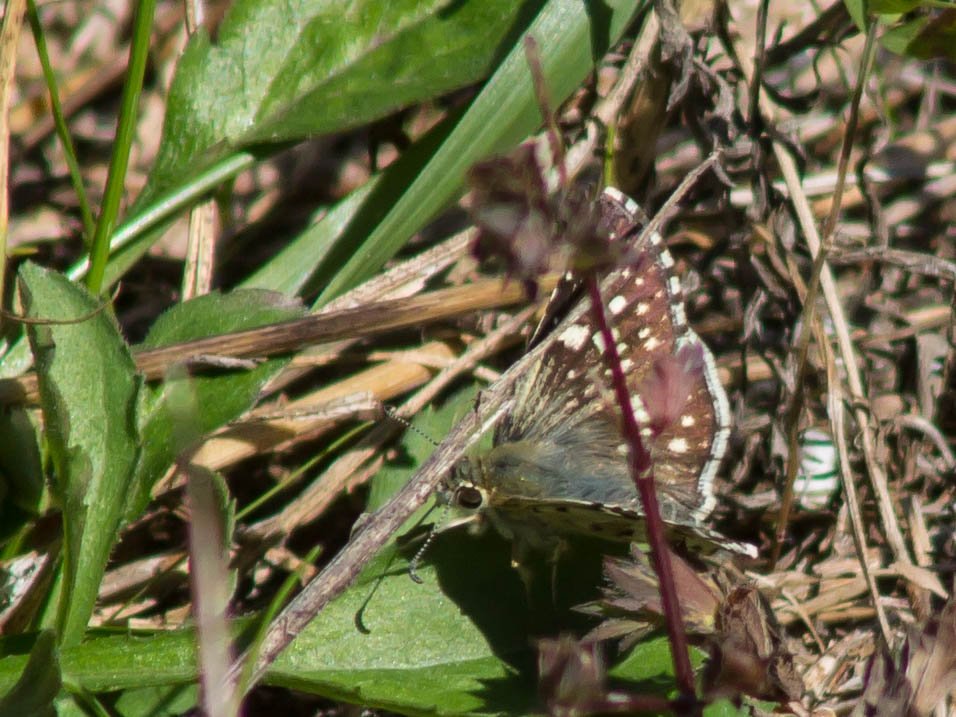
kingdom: Animalia
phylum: Arthropoda
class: Insecta
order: Lepidoptera
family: Hesperiidae
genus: Pyrgus
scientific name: Pyrgus communis
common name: Common Checkered-Skipper
